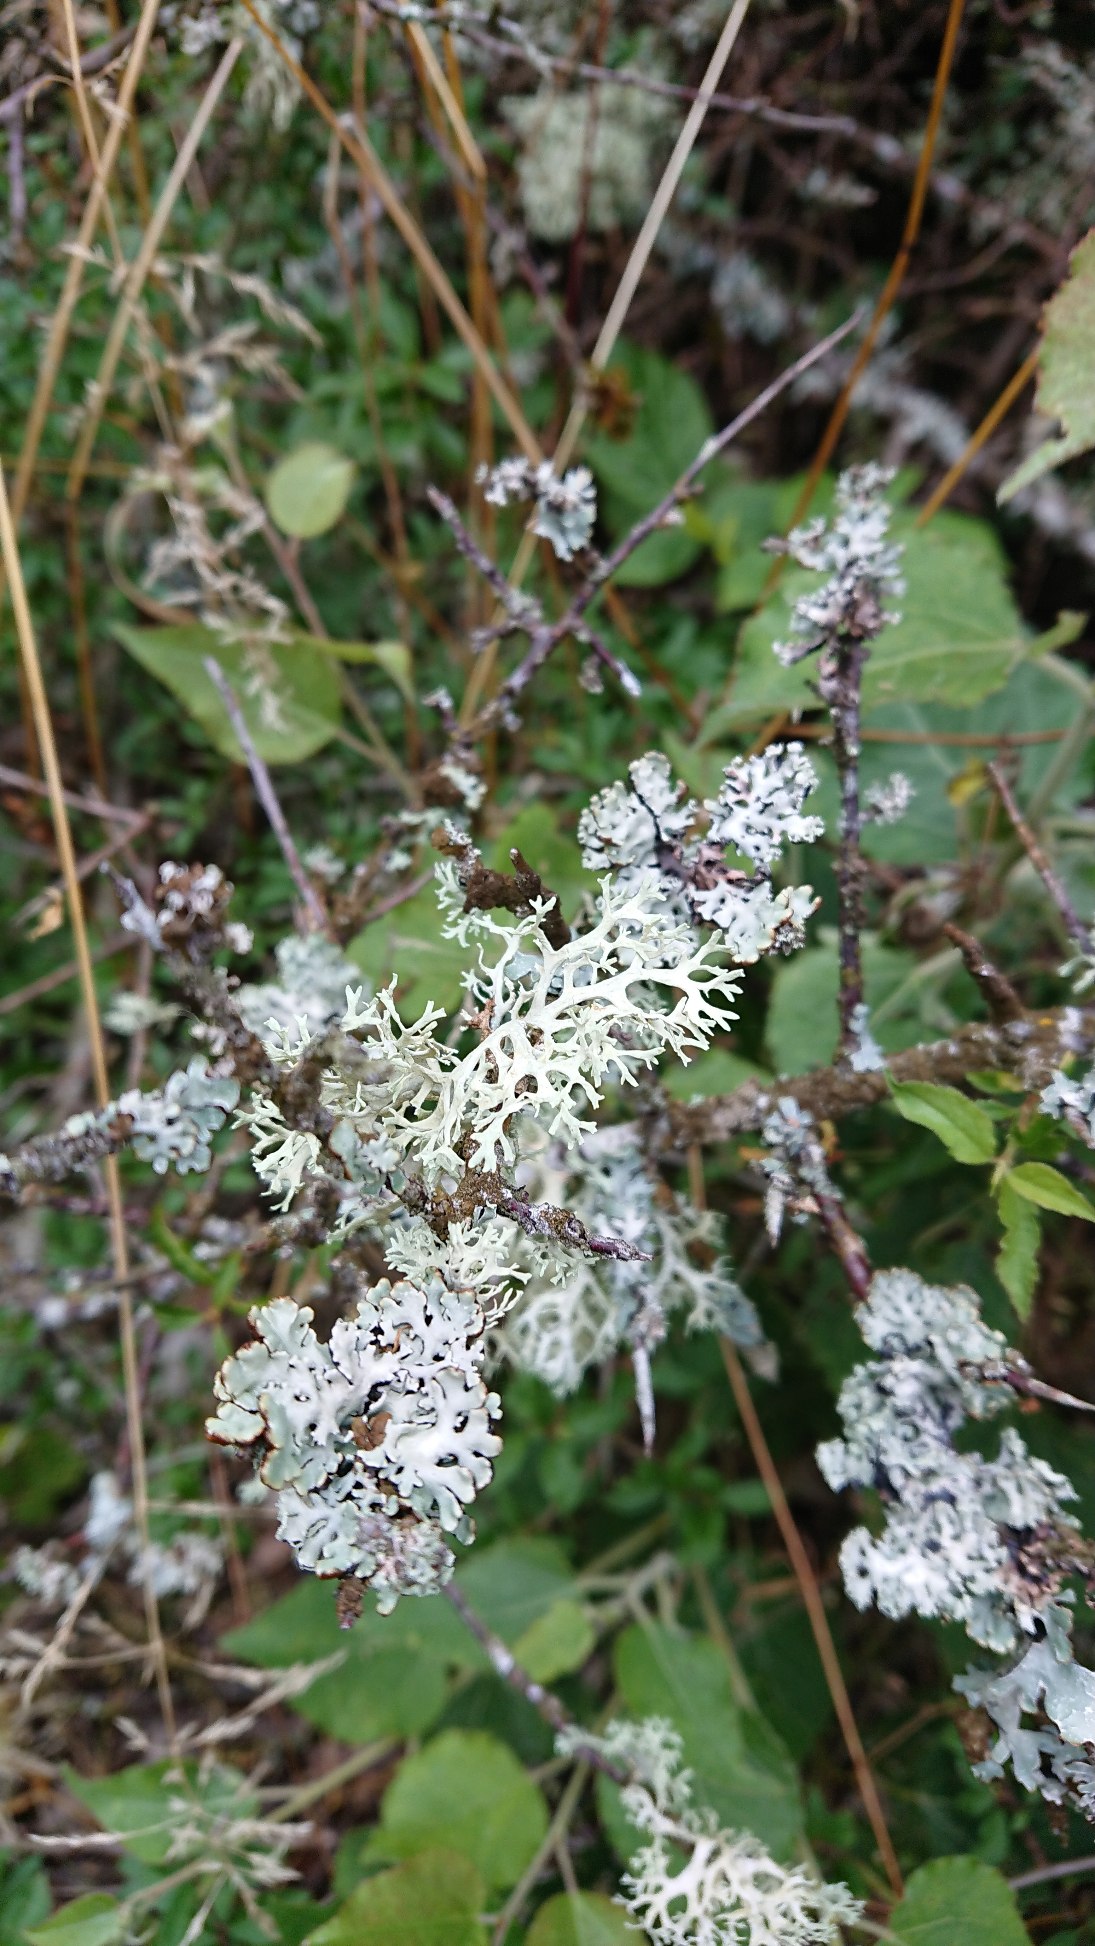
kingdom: Fungi
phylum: Ascomycota
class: Lecanoromycetes
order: Lecanorales
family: Parmeliaceae
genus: Hypogymnia
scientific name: Hypogymnia physodes
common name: Almindelig kvistlav
